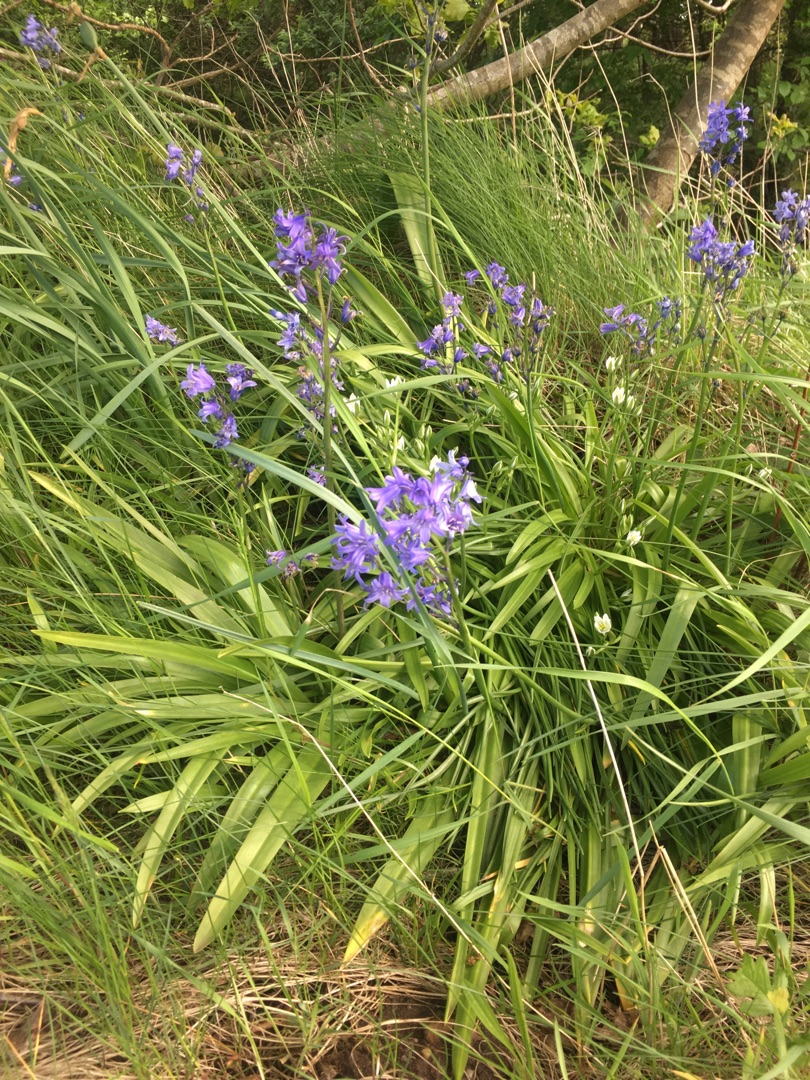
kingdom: Plantae
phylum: Tracheophyta
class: Liliopsida
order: Asparagales
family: Asparagaceae
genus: Hyacinthoides
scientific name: Hyacinthoides massartiana
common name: Hybrid-klokkeskilla
